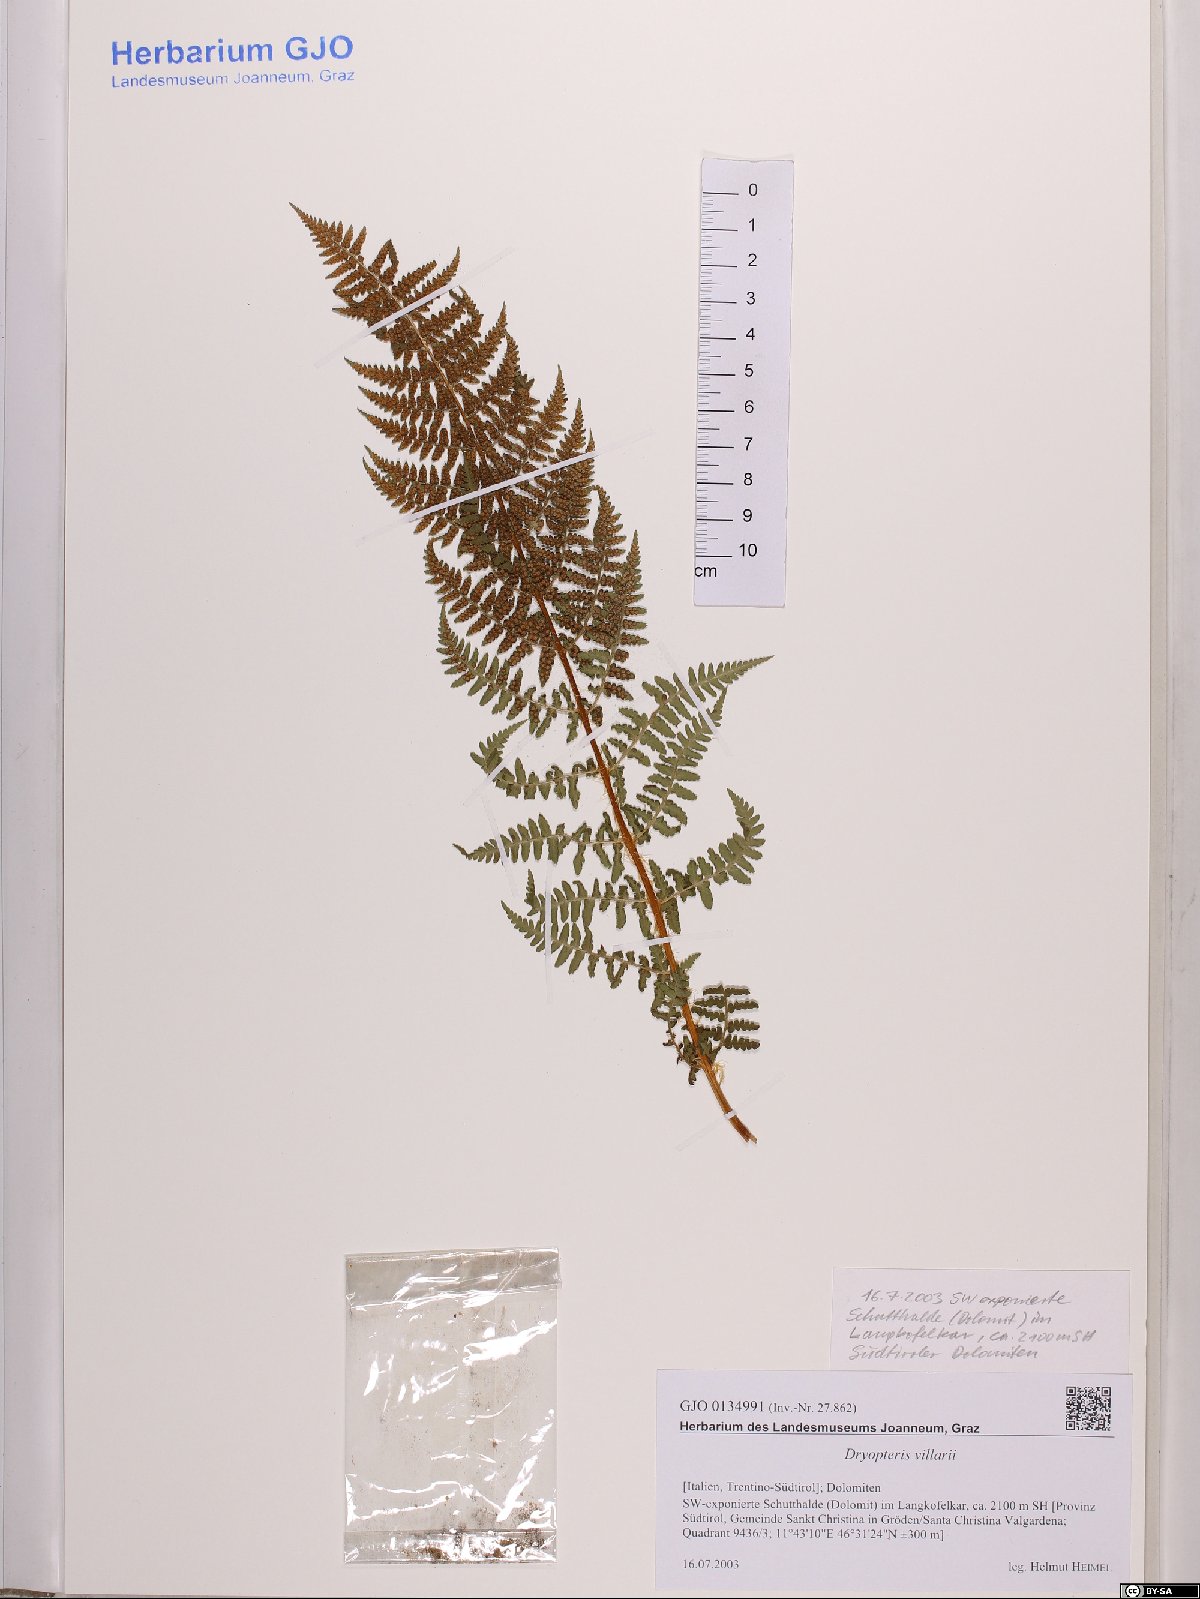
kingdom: Plantae
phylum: Tracheophyta
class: Polypodiopsida
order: Polypodiales
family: Dryopteridaceae
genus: Dryopteris
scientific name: Dryopteris villarii
